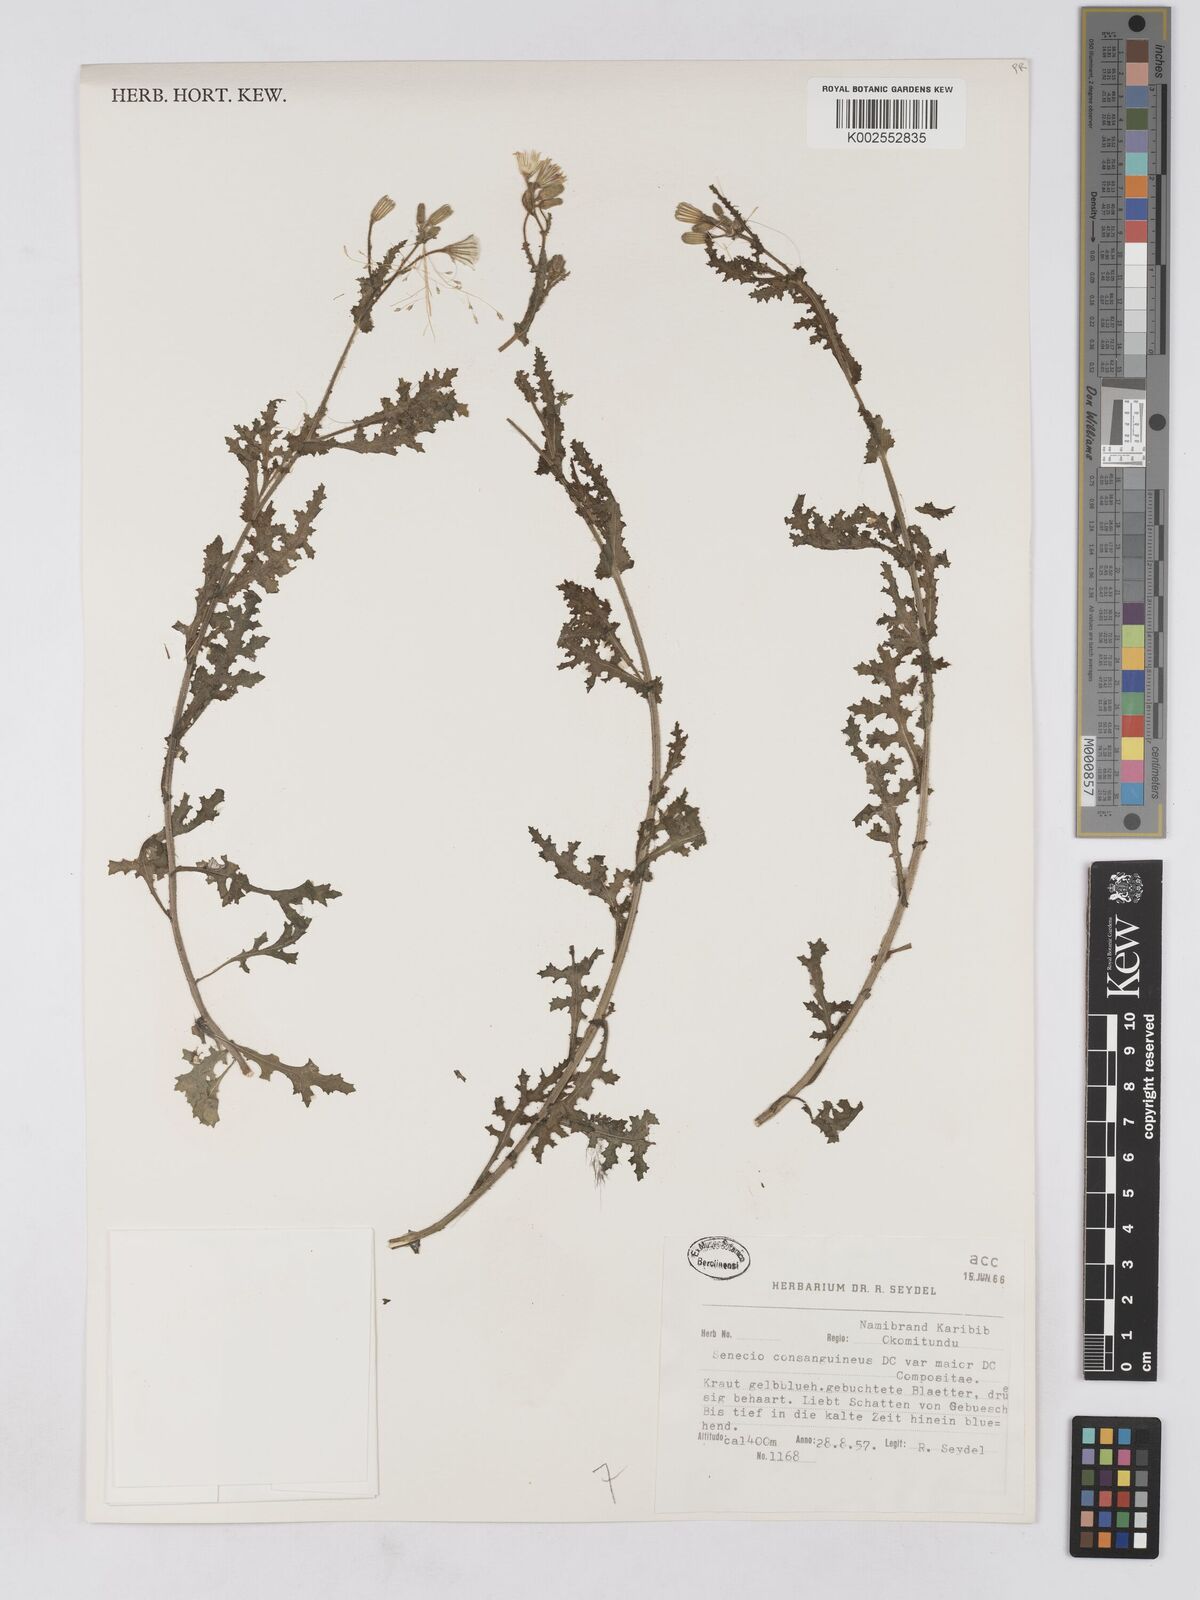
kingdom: Plantae
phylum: Tracheophyta
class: Magnoliopsida
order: Asterales
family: Asteraceae
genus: Senecio
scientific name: Senecio consanguineus
